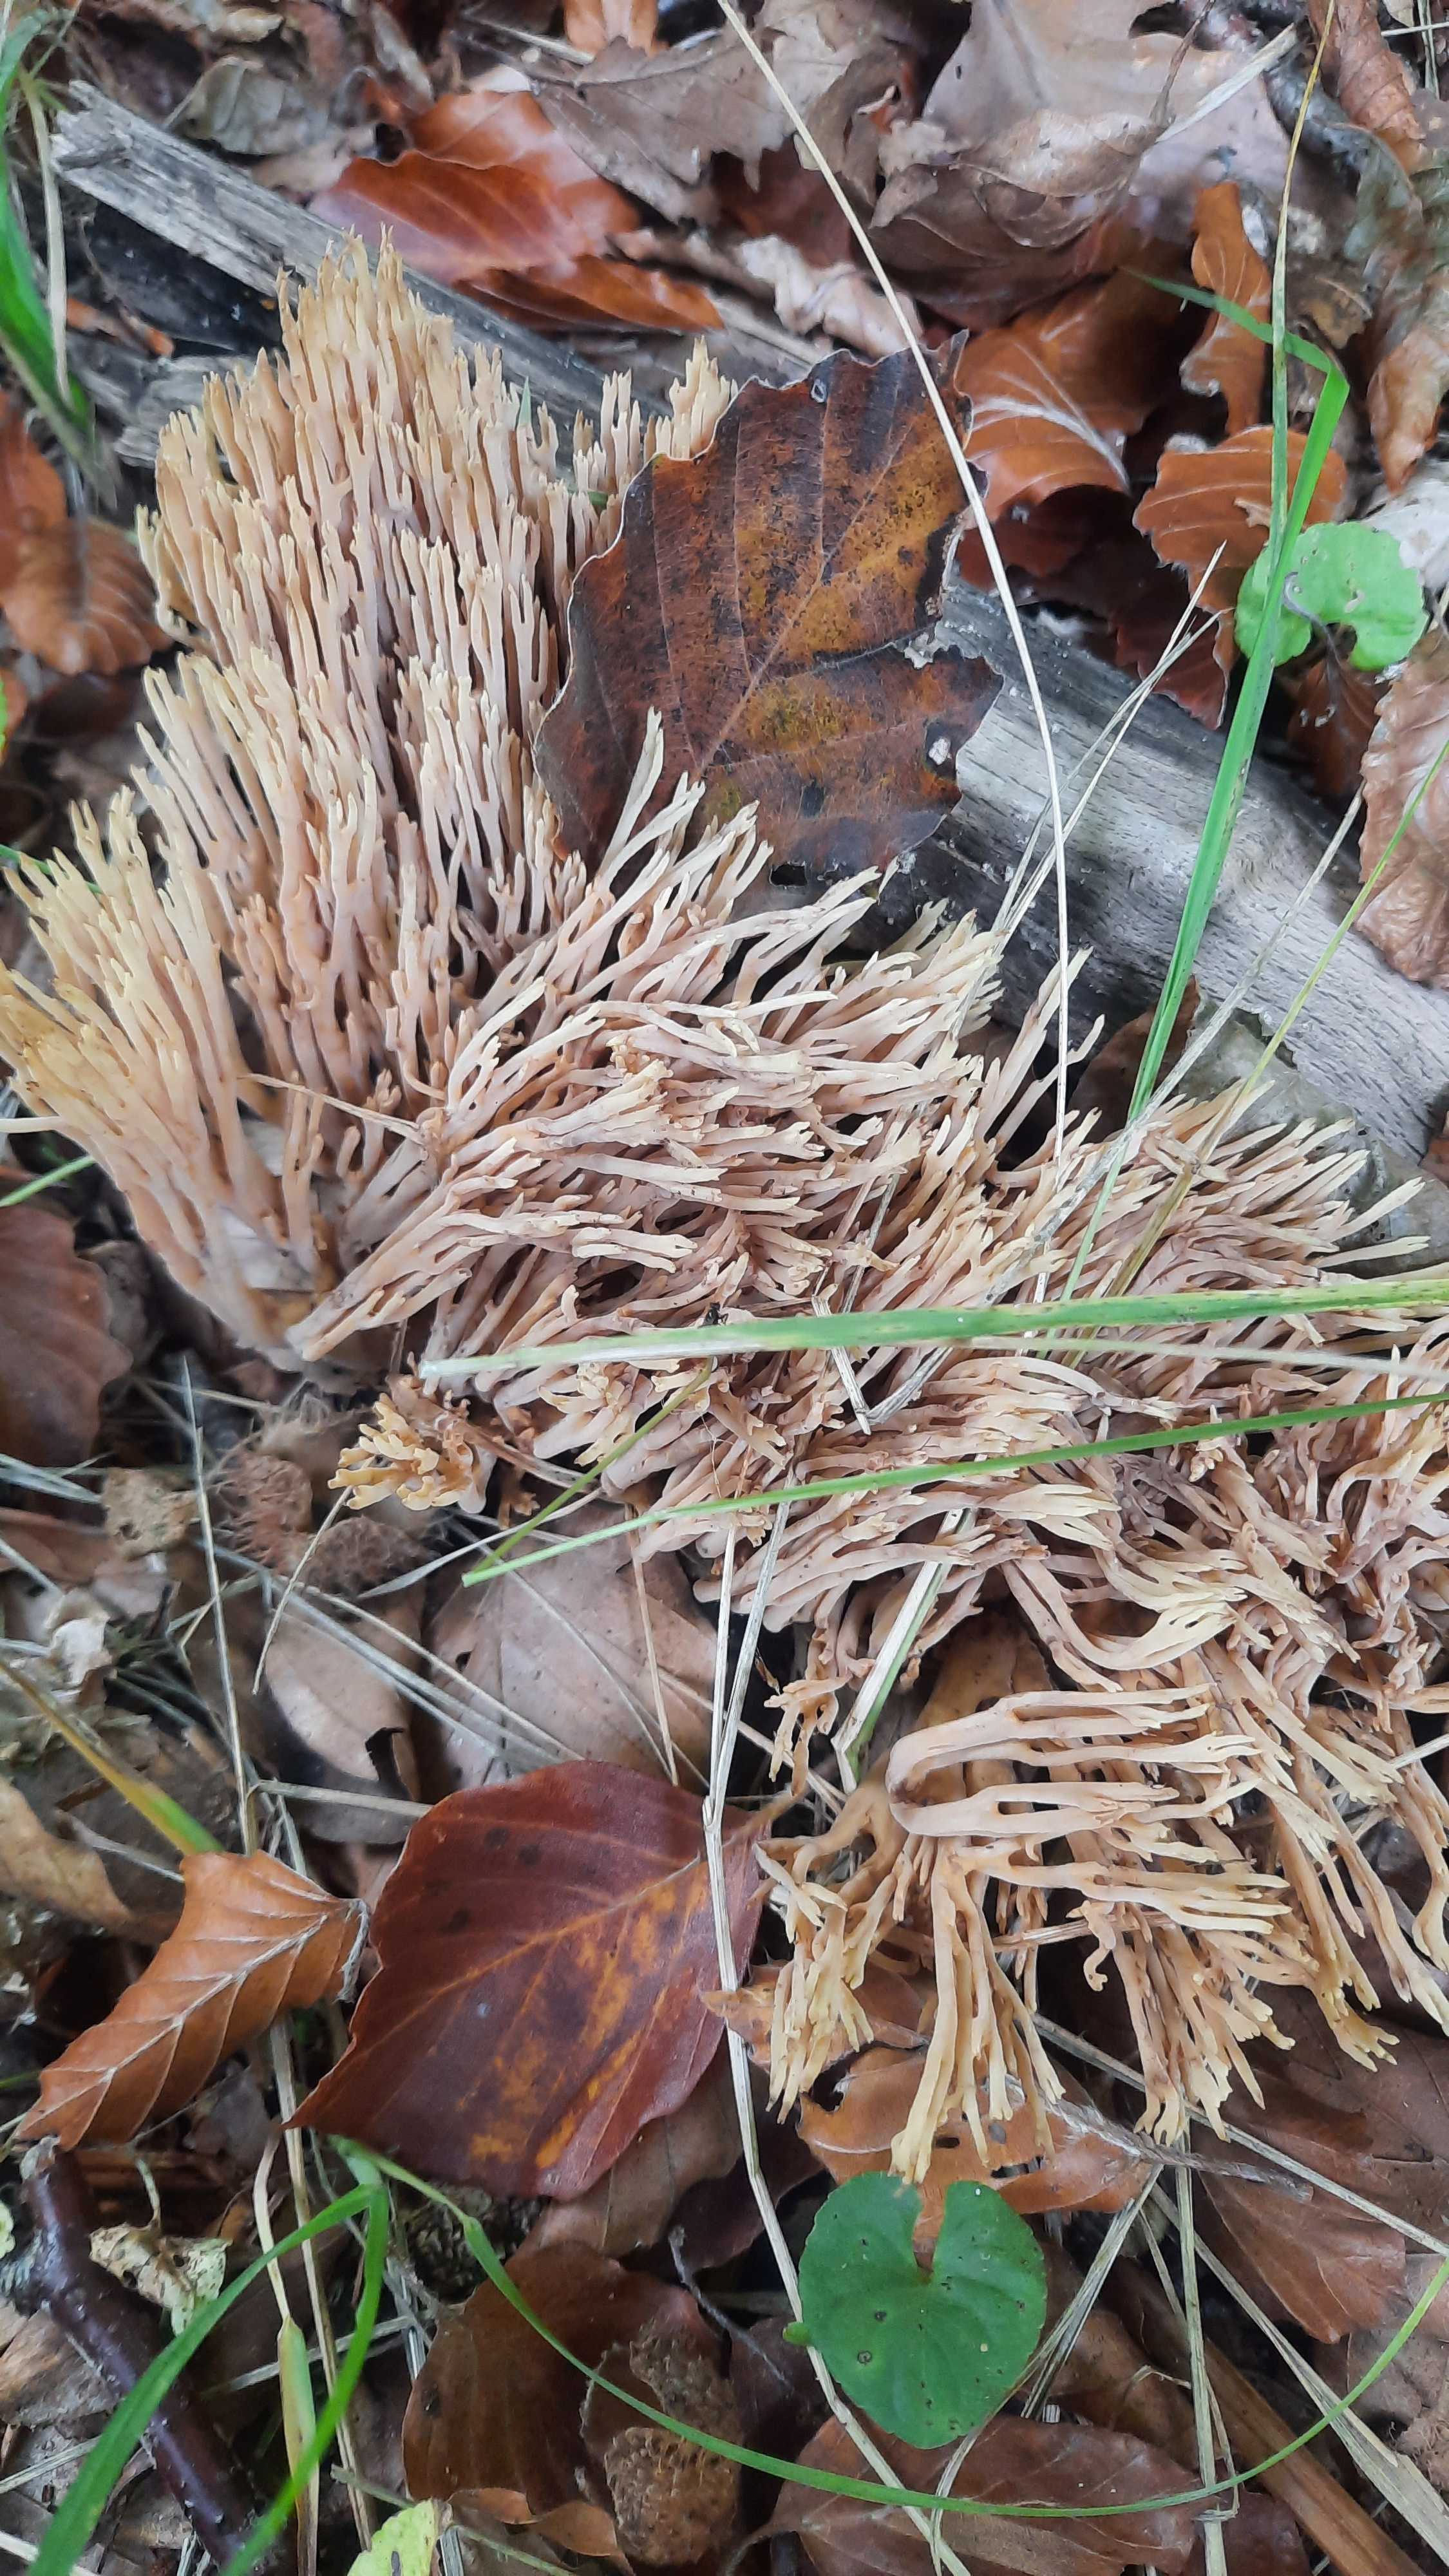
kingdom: Fungi
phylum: Basidiomycota
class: Agaricomycetes
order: Gomphales
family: Gomphaceae
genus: Ramaria
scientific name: Ramaria stricta
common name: rank koralsvamp
